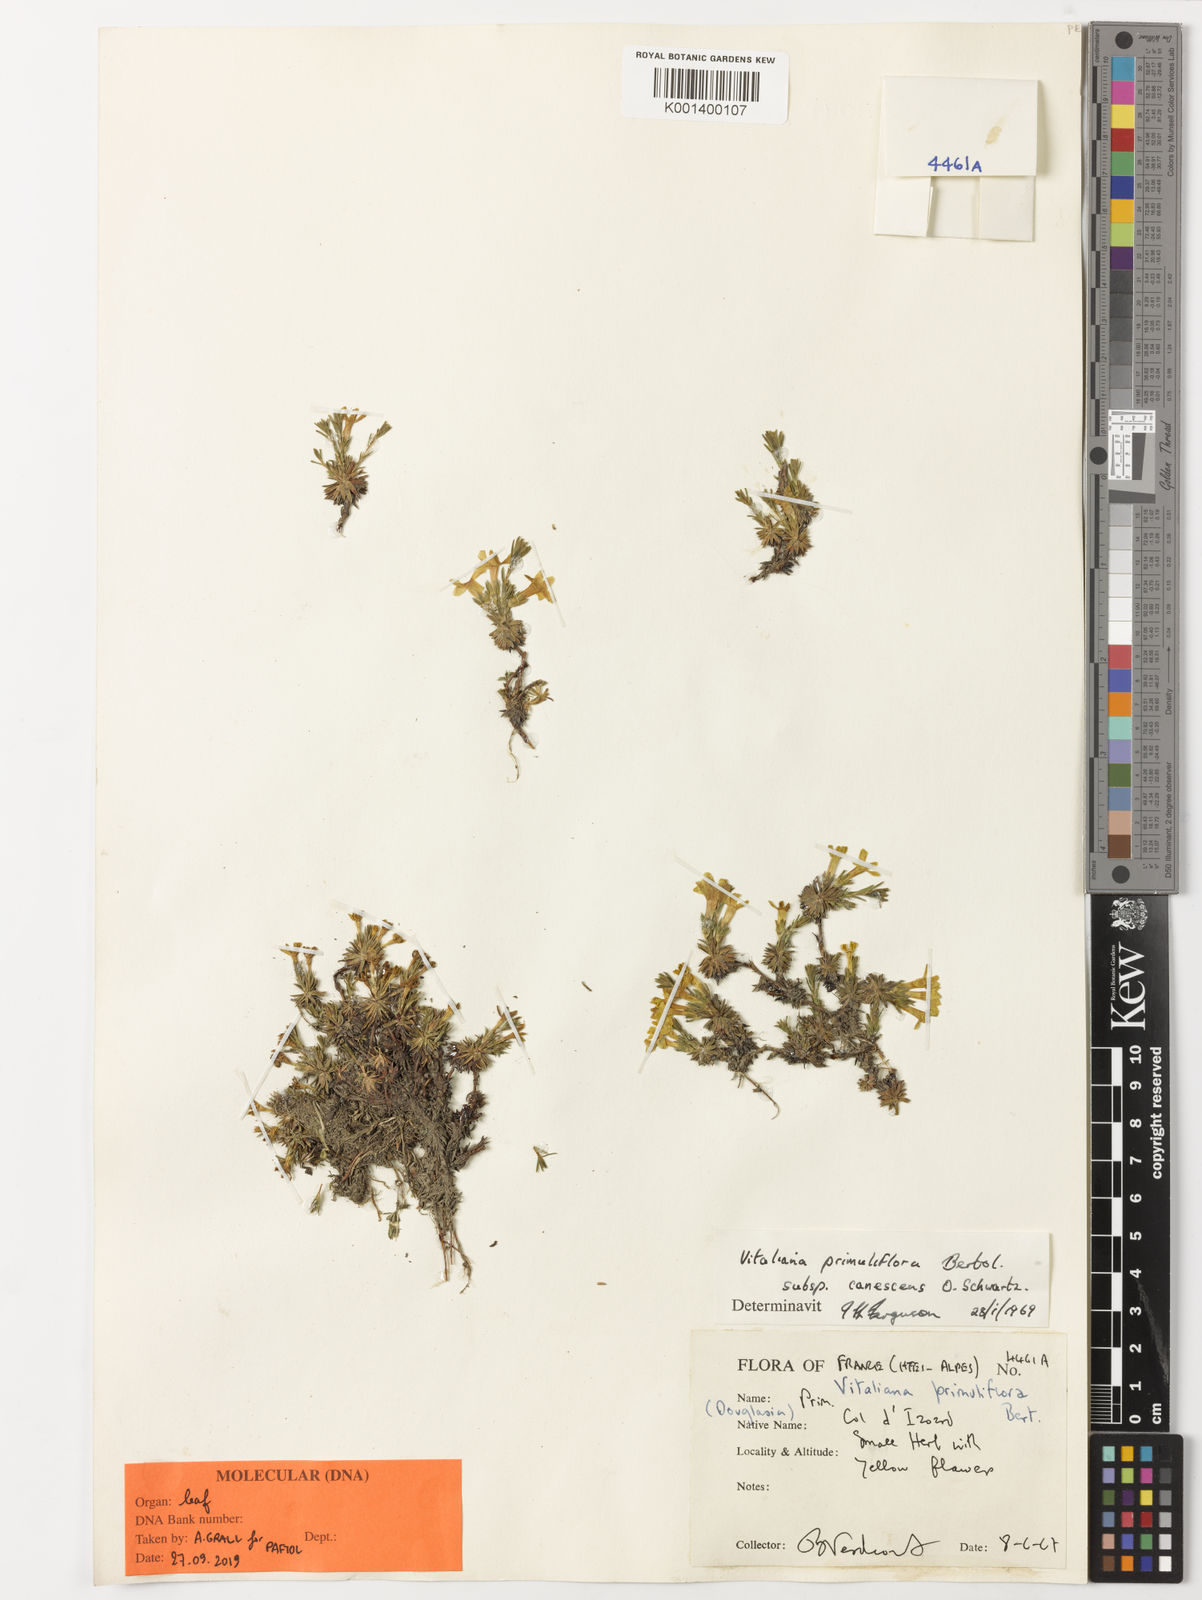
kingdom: Plantae
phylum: Tracheophyta
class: Magnoliopsida
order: Ericales
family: Primulaceae
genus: Androsace
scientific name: Androsace vitaliana
